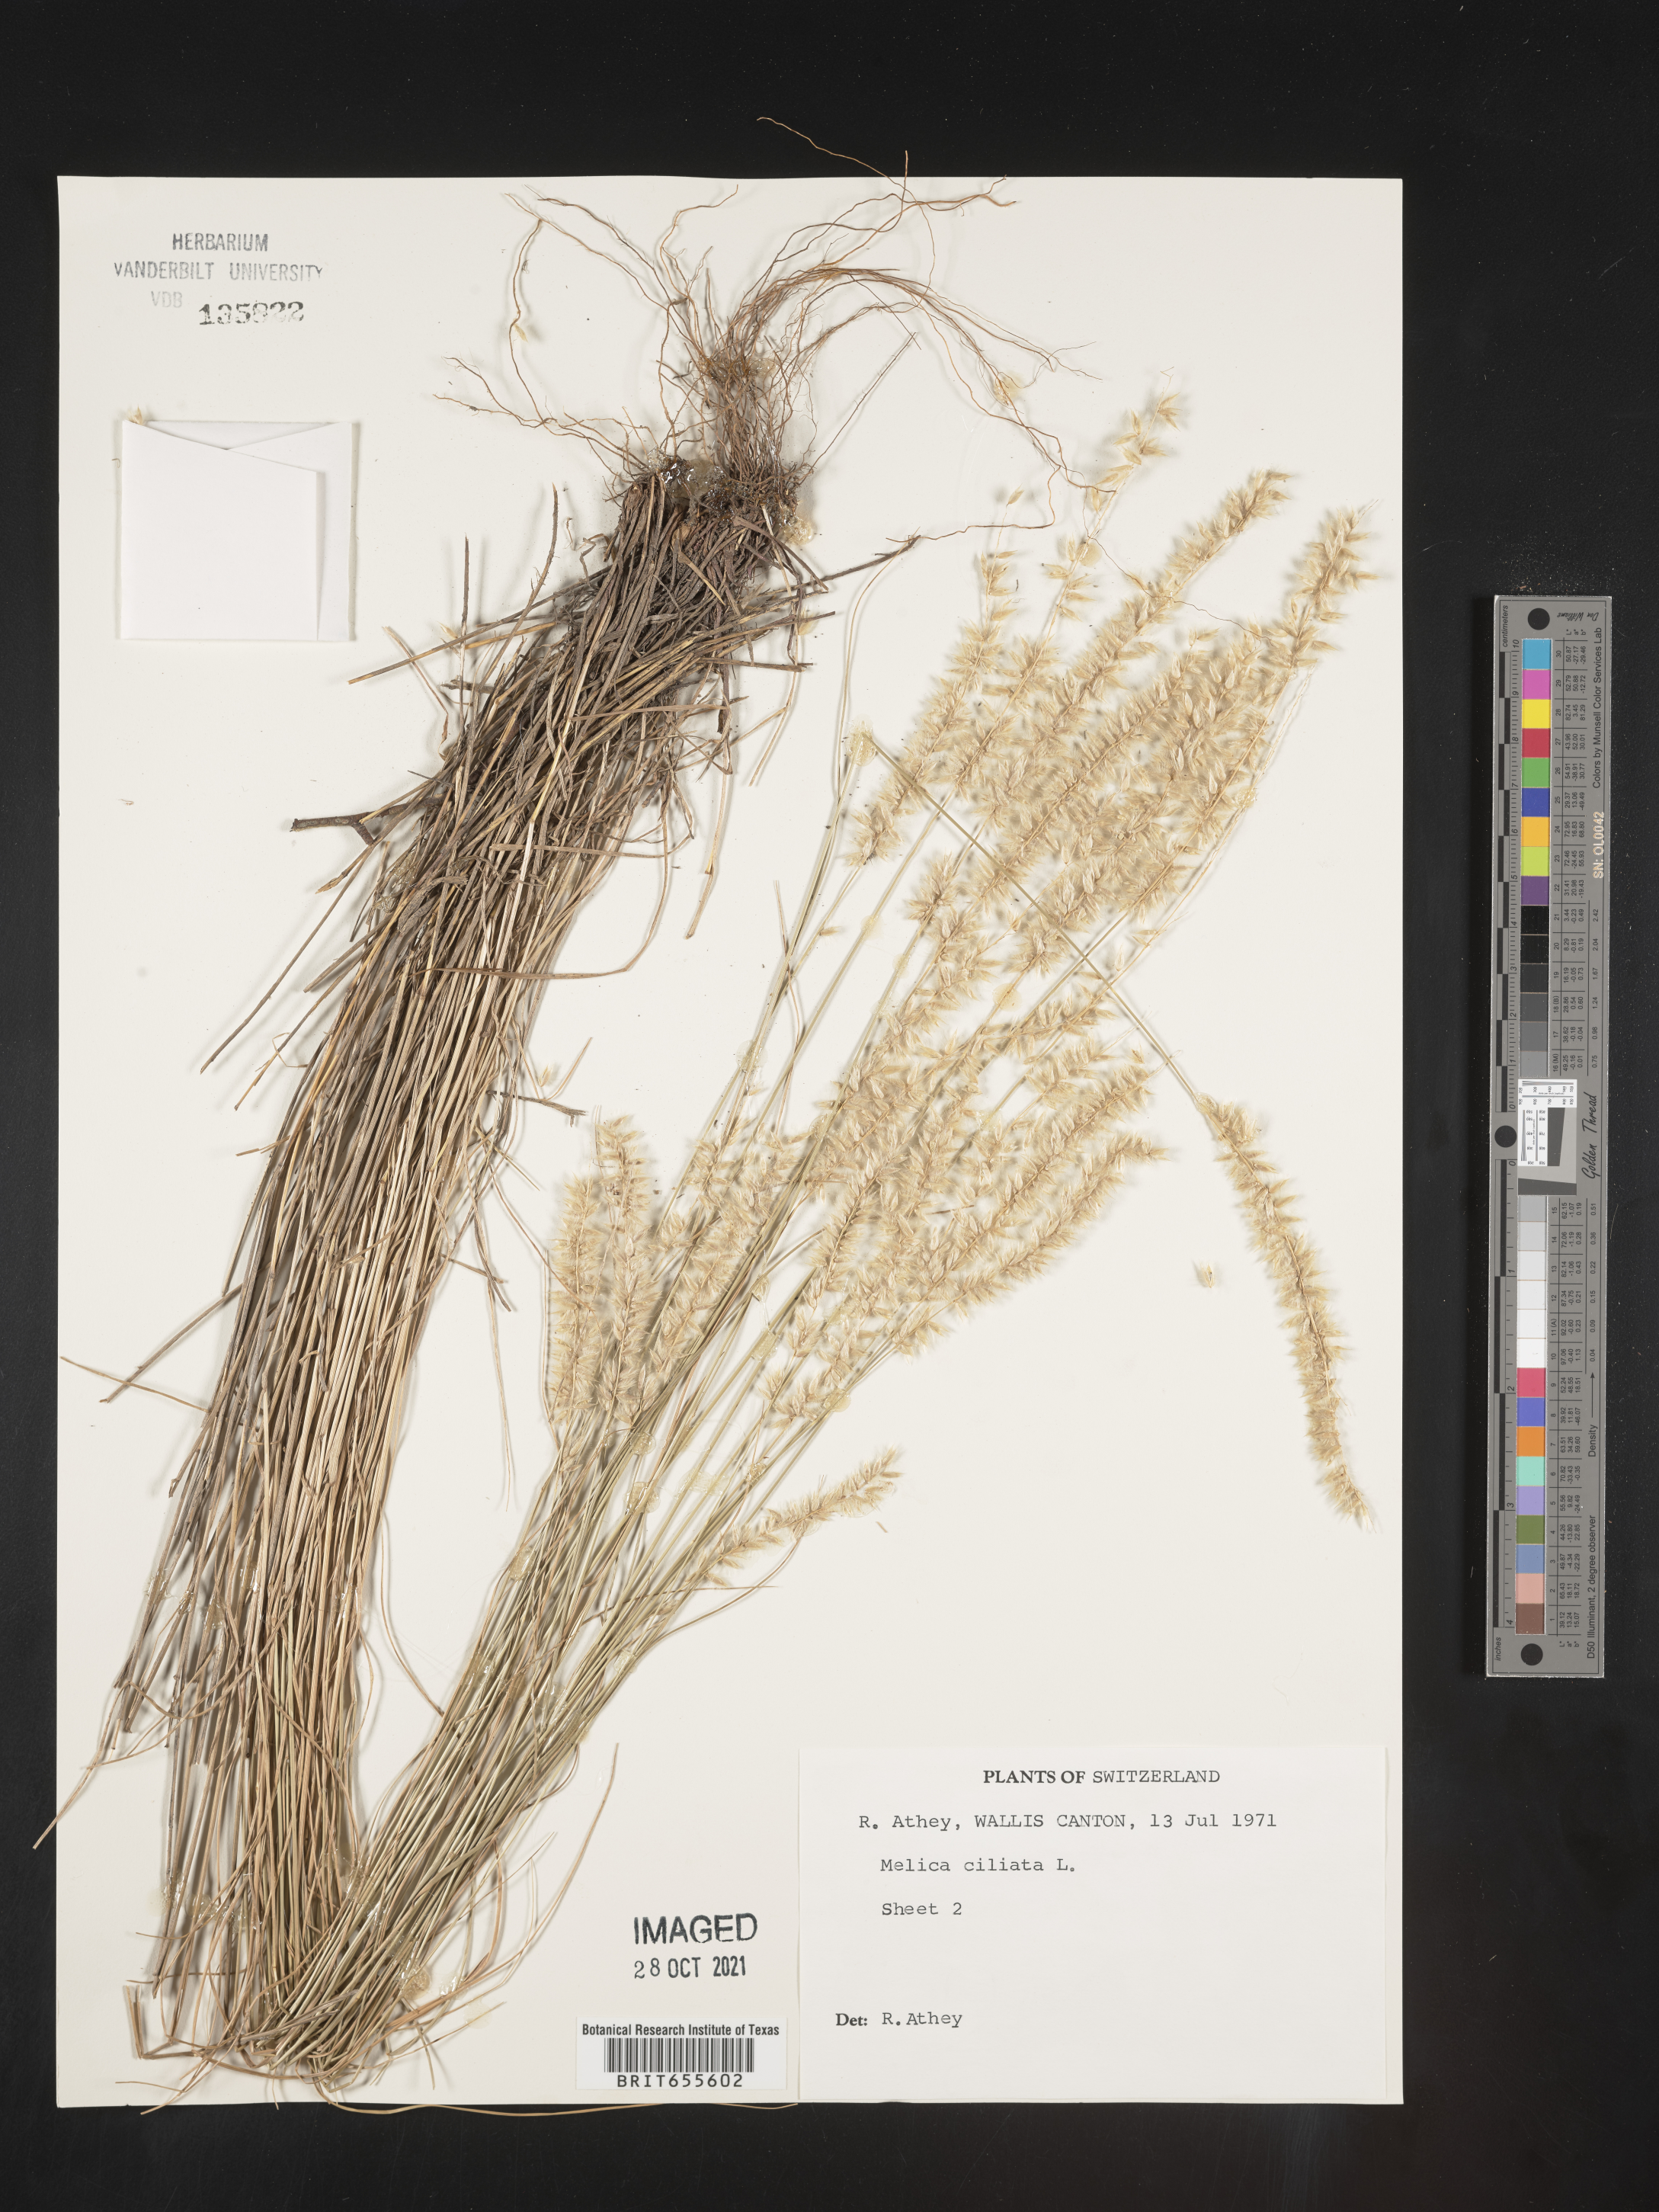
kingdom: Plantae
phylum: Tracheophyta
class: Liliopsida
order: Poales
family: Poaceae
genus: Melica
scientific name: Melica
